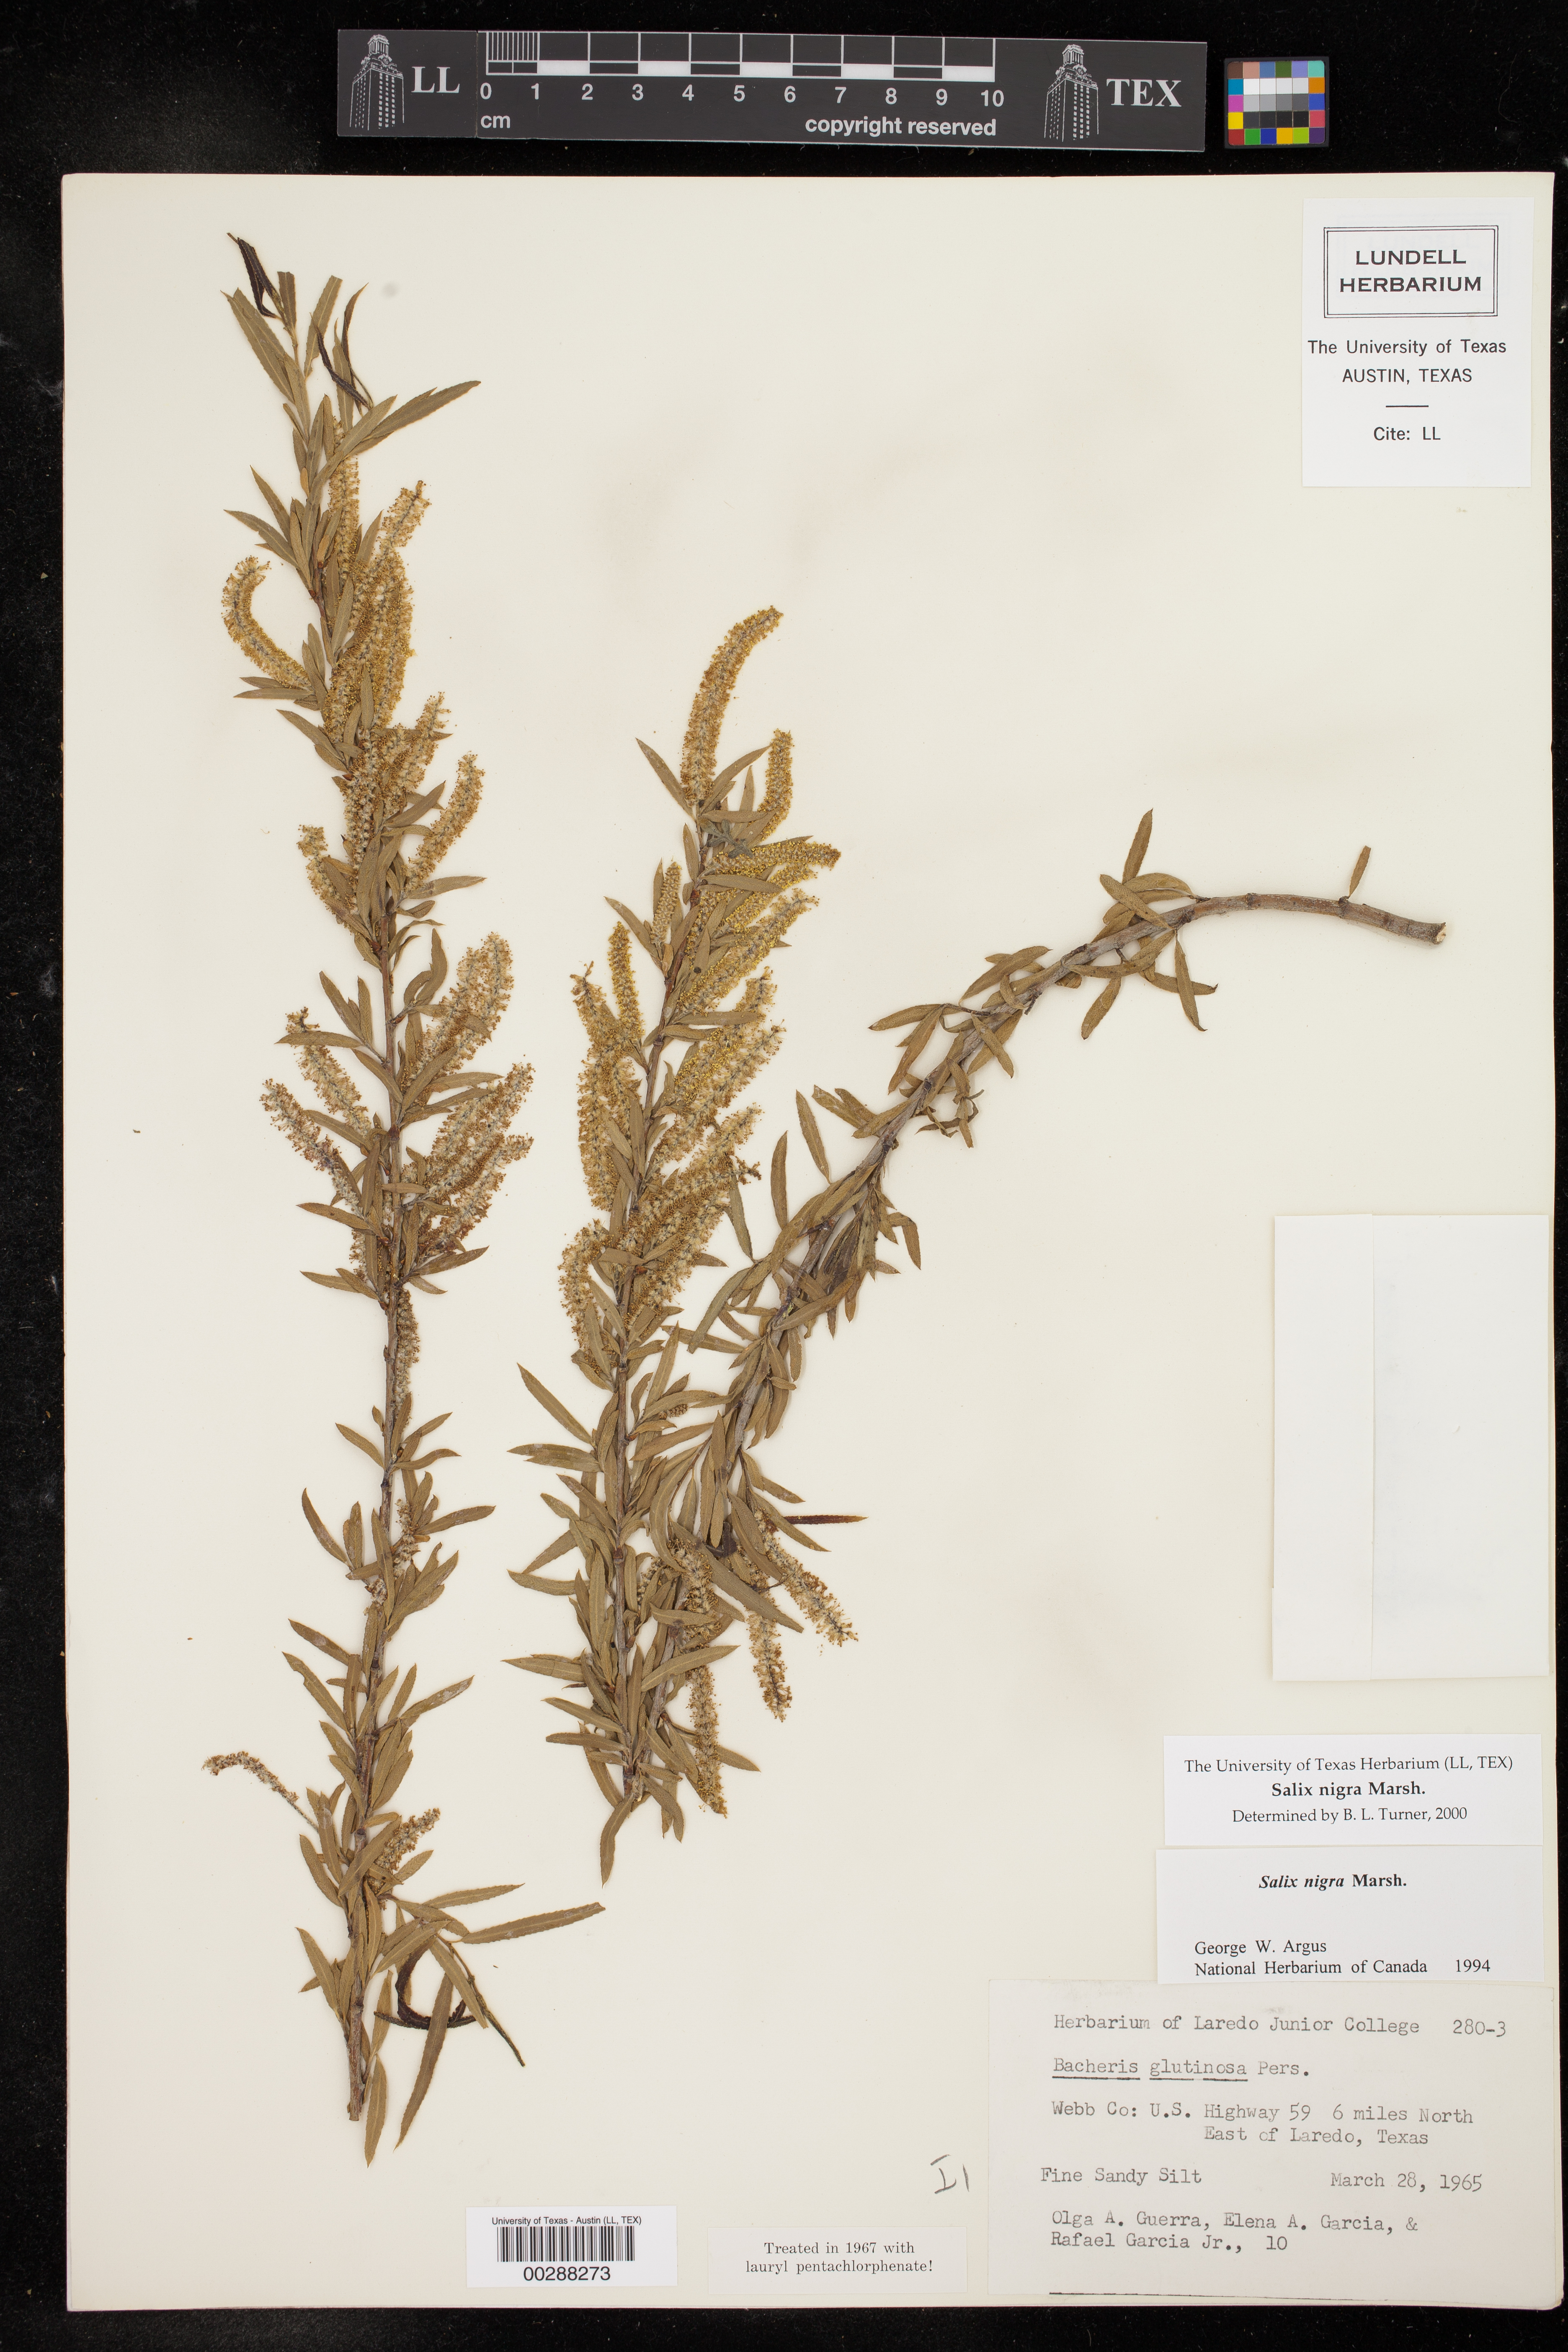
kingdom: Plantae
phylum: Tracheophyta
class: Magnoliopsida
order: Malpighiales
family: Salicaceae
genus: Salix
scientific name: Salix nigra
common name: Black willow
